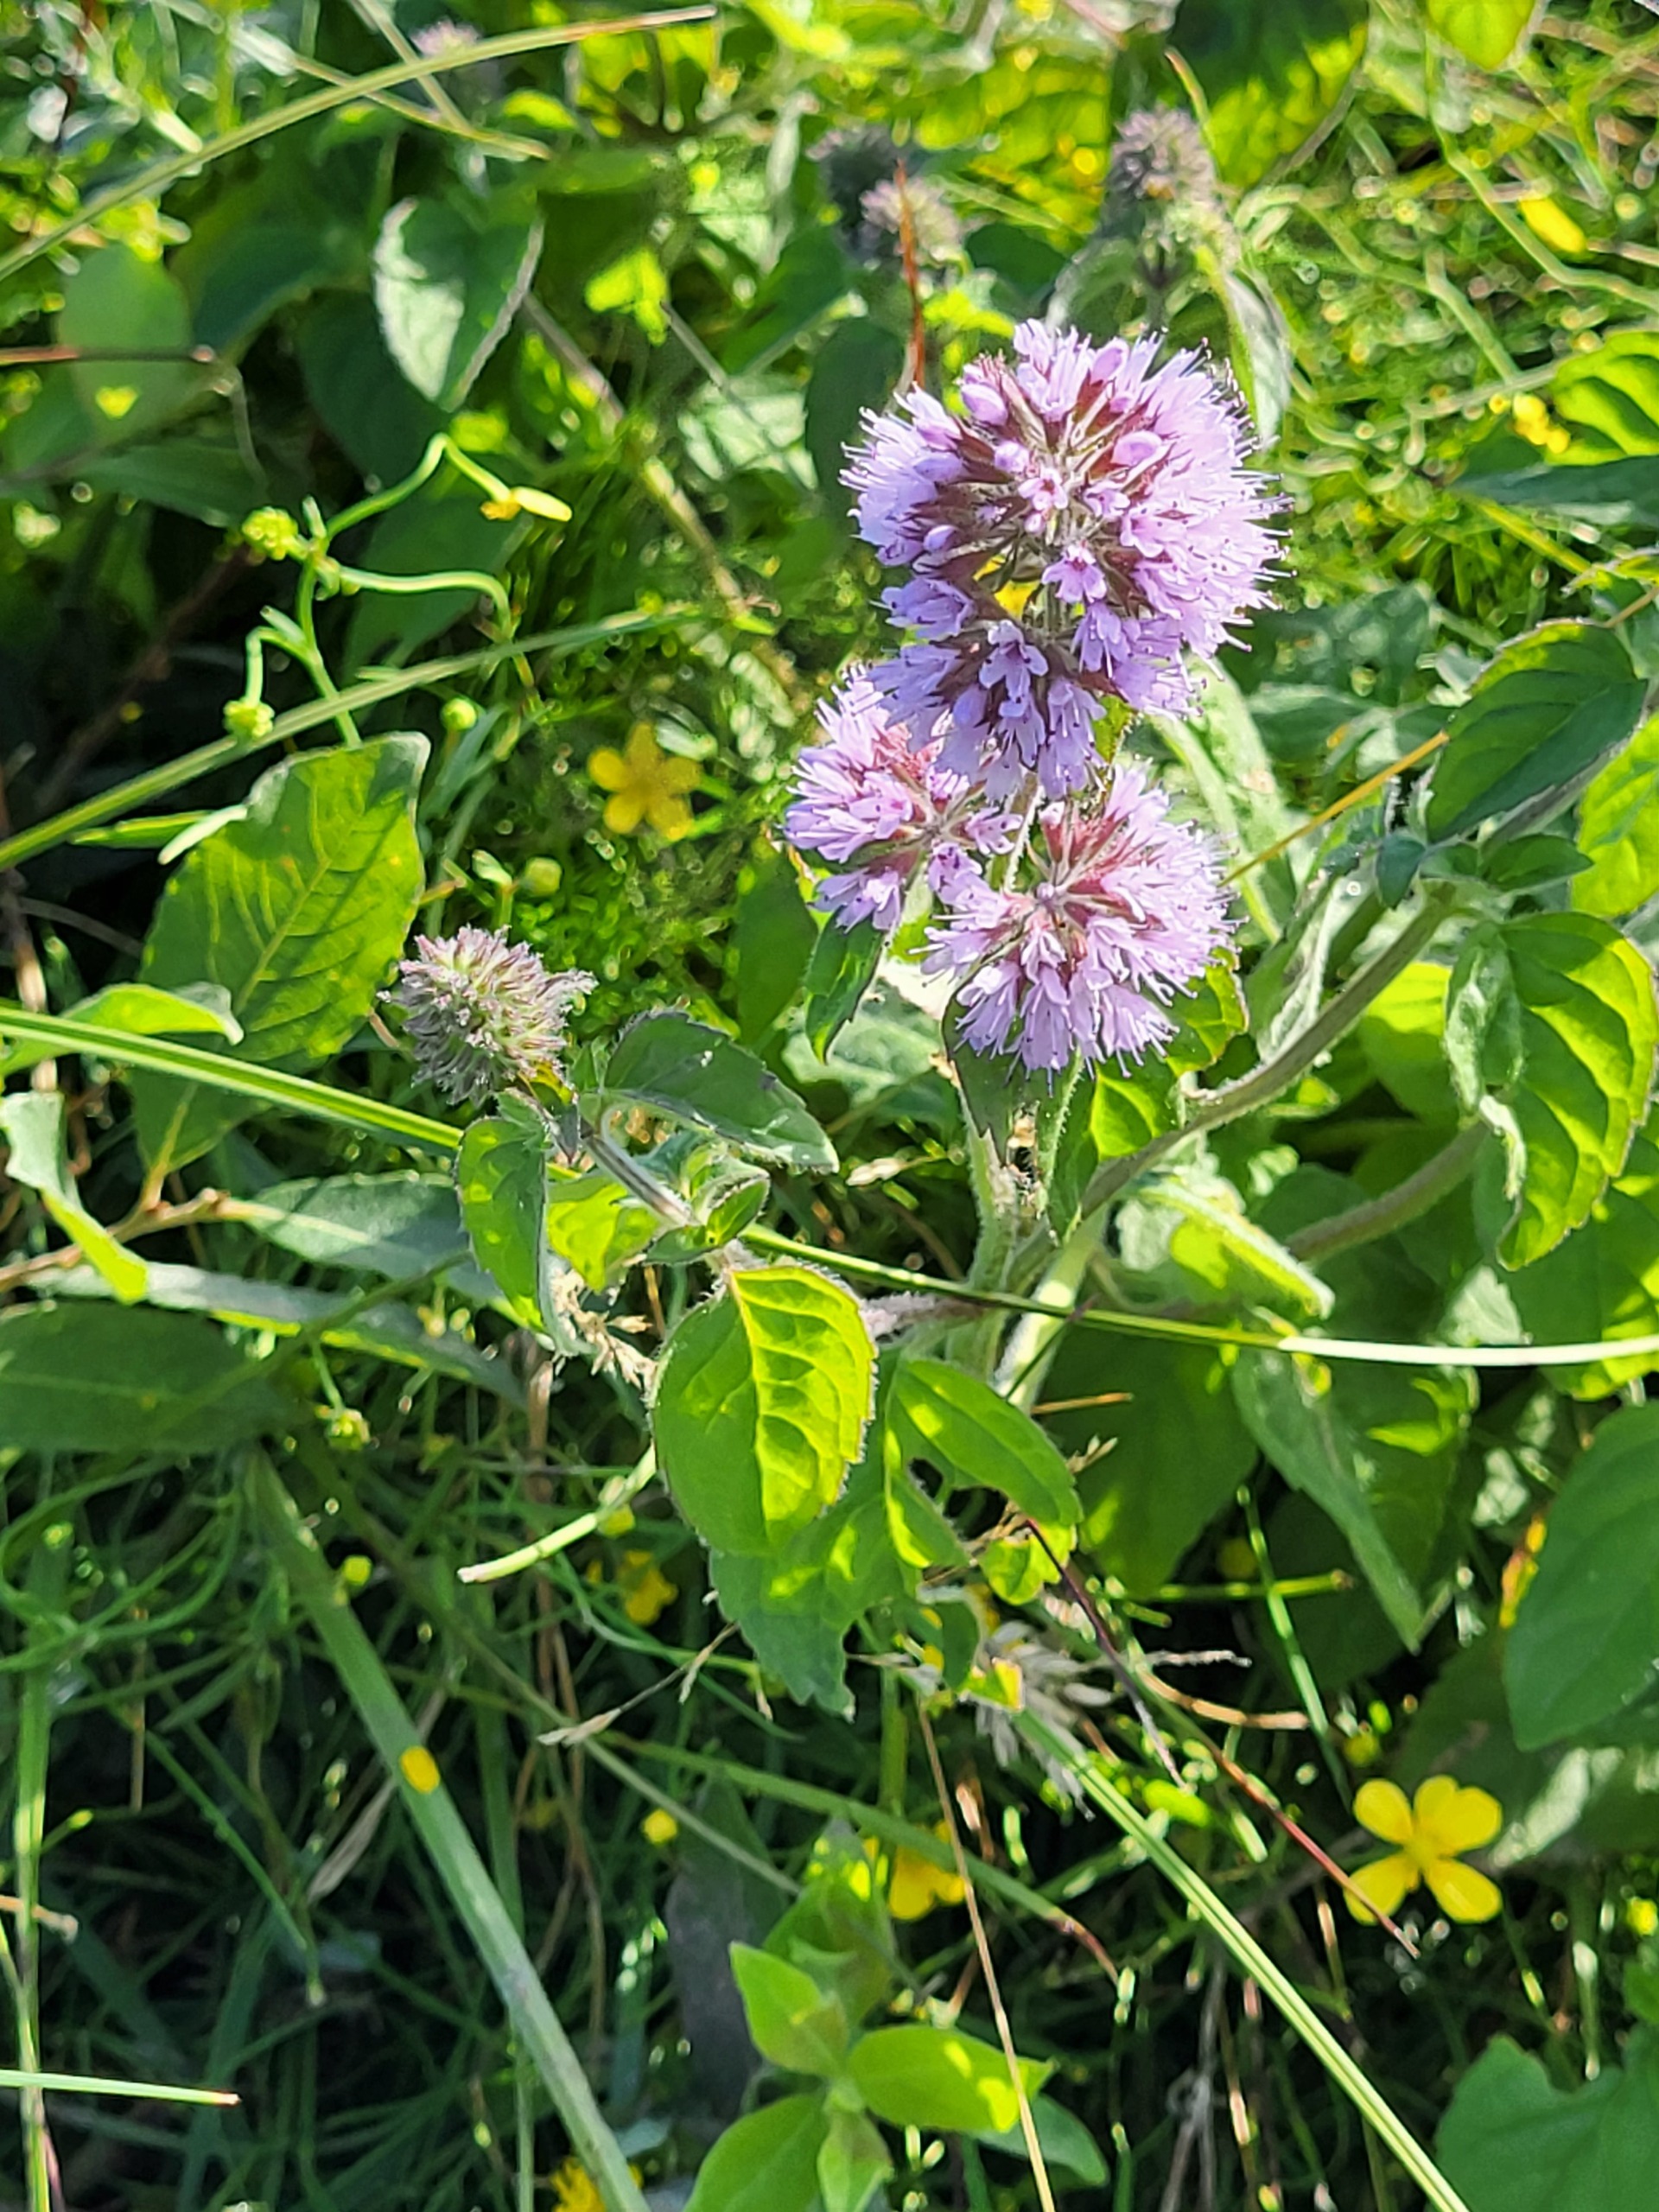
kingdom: Plantae
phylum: Tracheophyta
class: Magnoliopsida
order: Lamiales
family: Lamiaceae
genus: Mentha
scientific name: Mentha aquatica
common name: Vand-mynte
